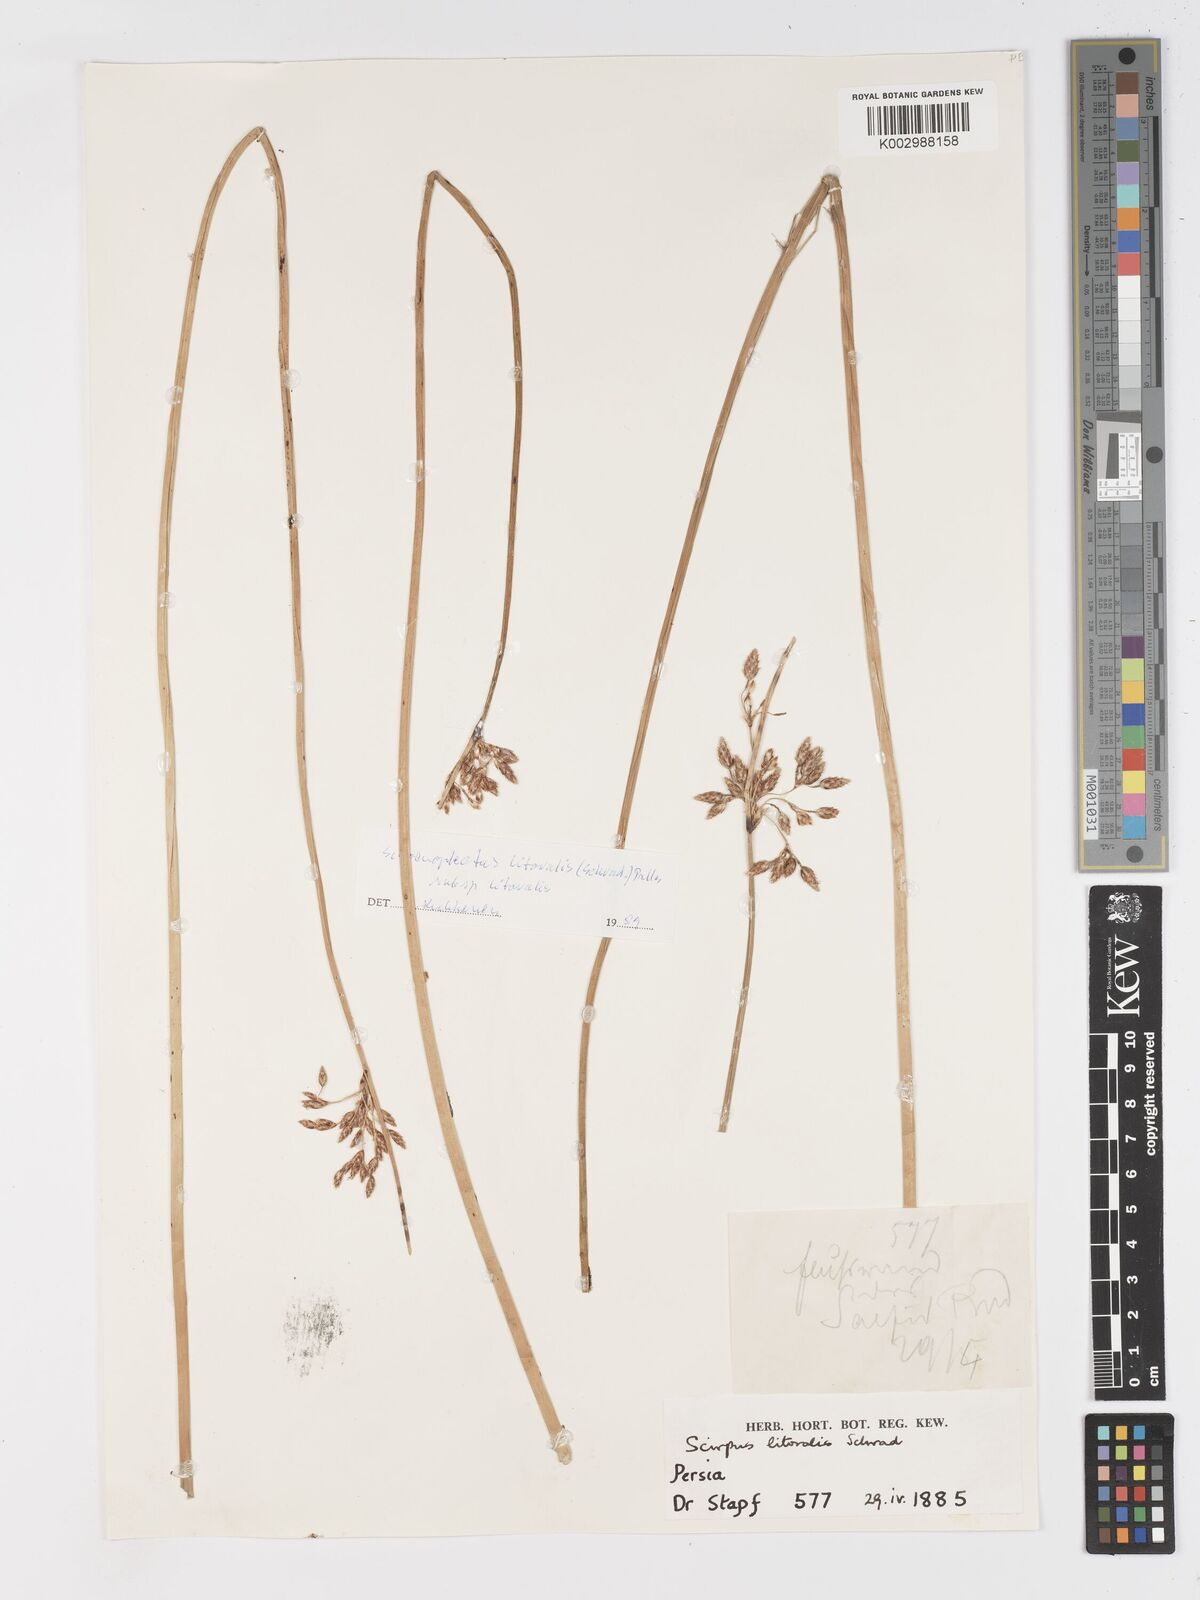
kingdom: Plantae
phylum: Tracheophyta
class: Liliopsida
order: Poales
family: Cyperaceae
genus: Schoenoplectus
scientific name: Schoenoplectus litoralis
